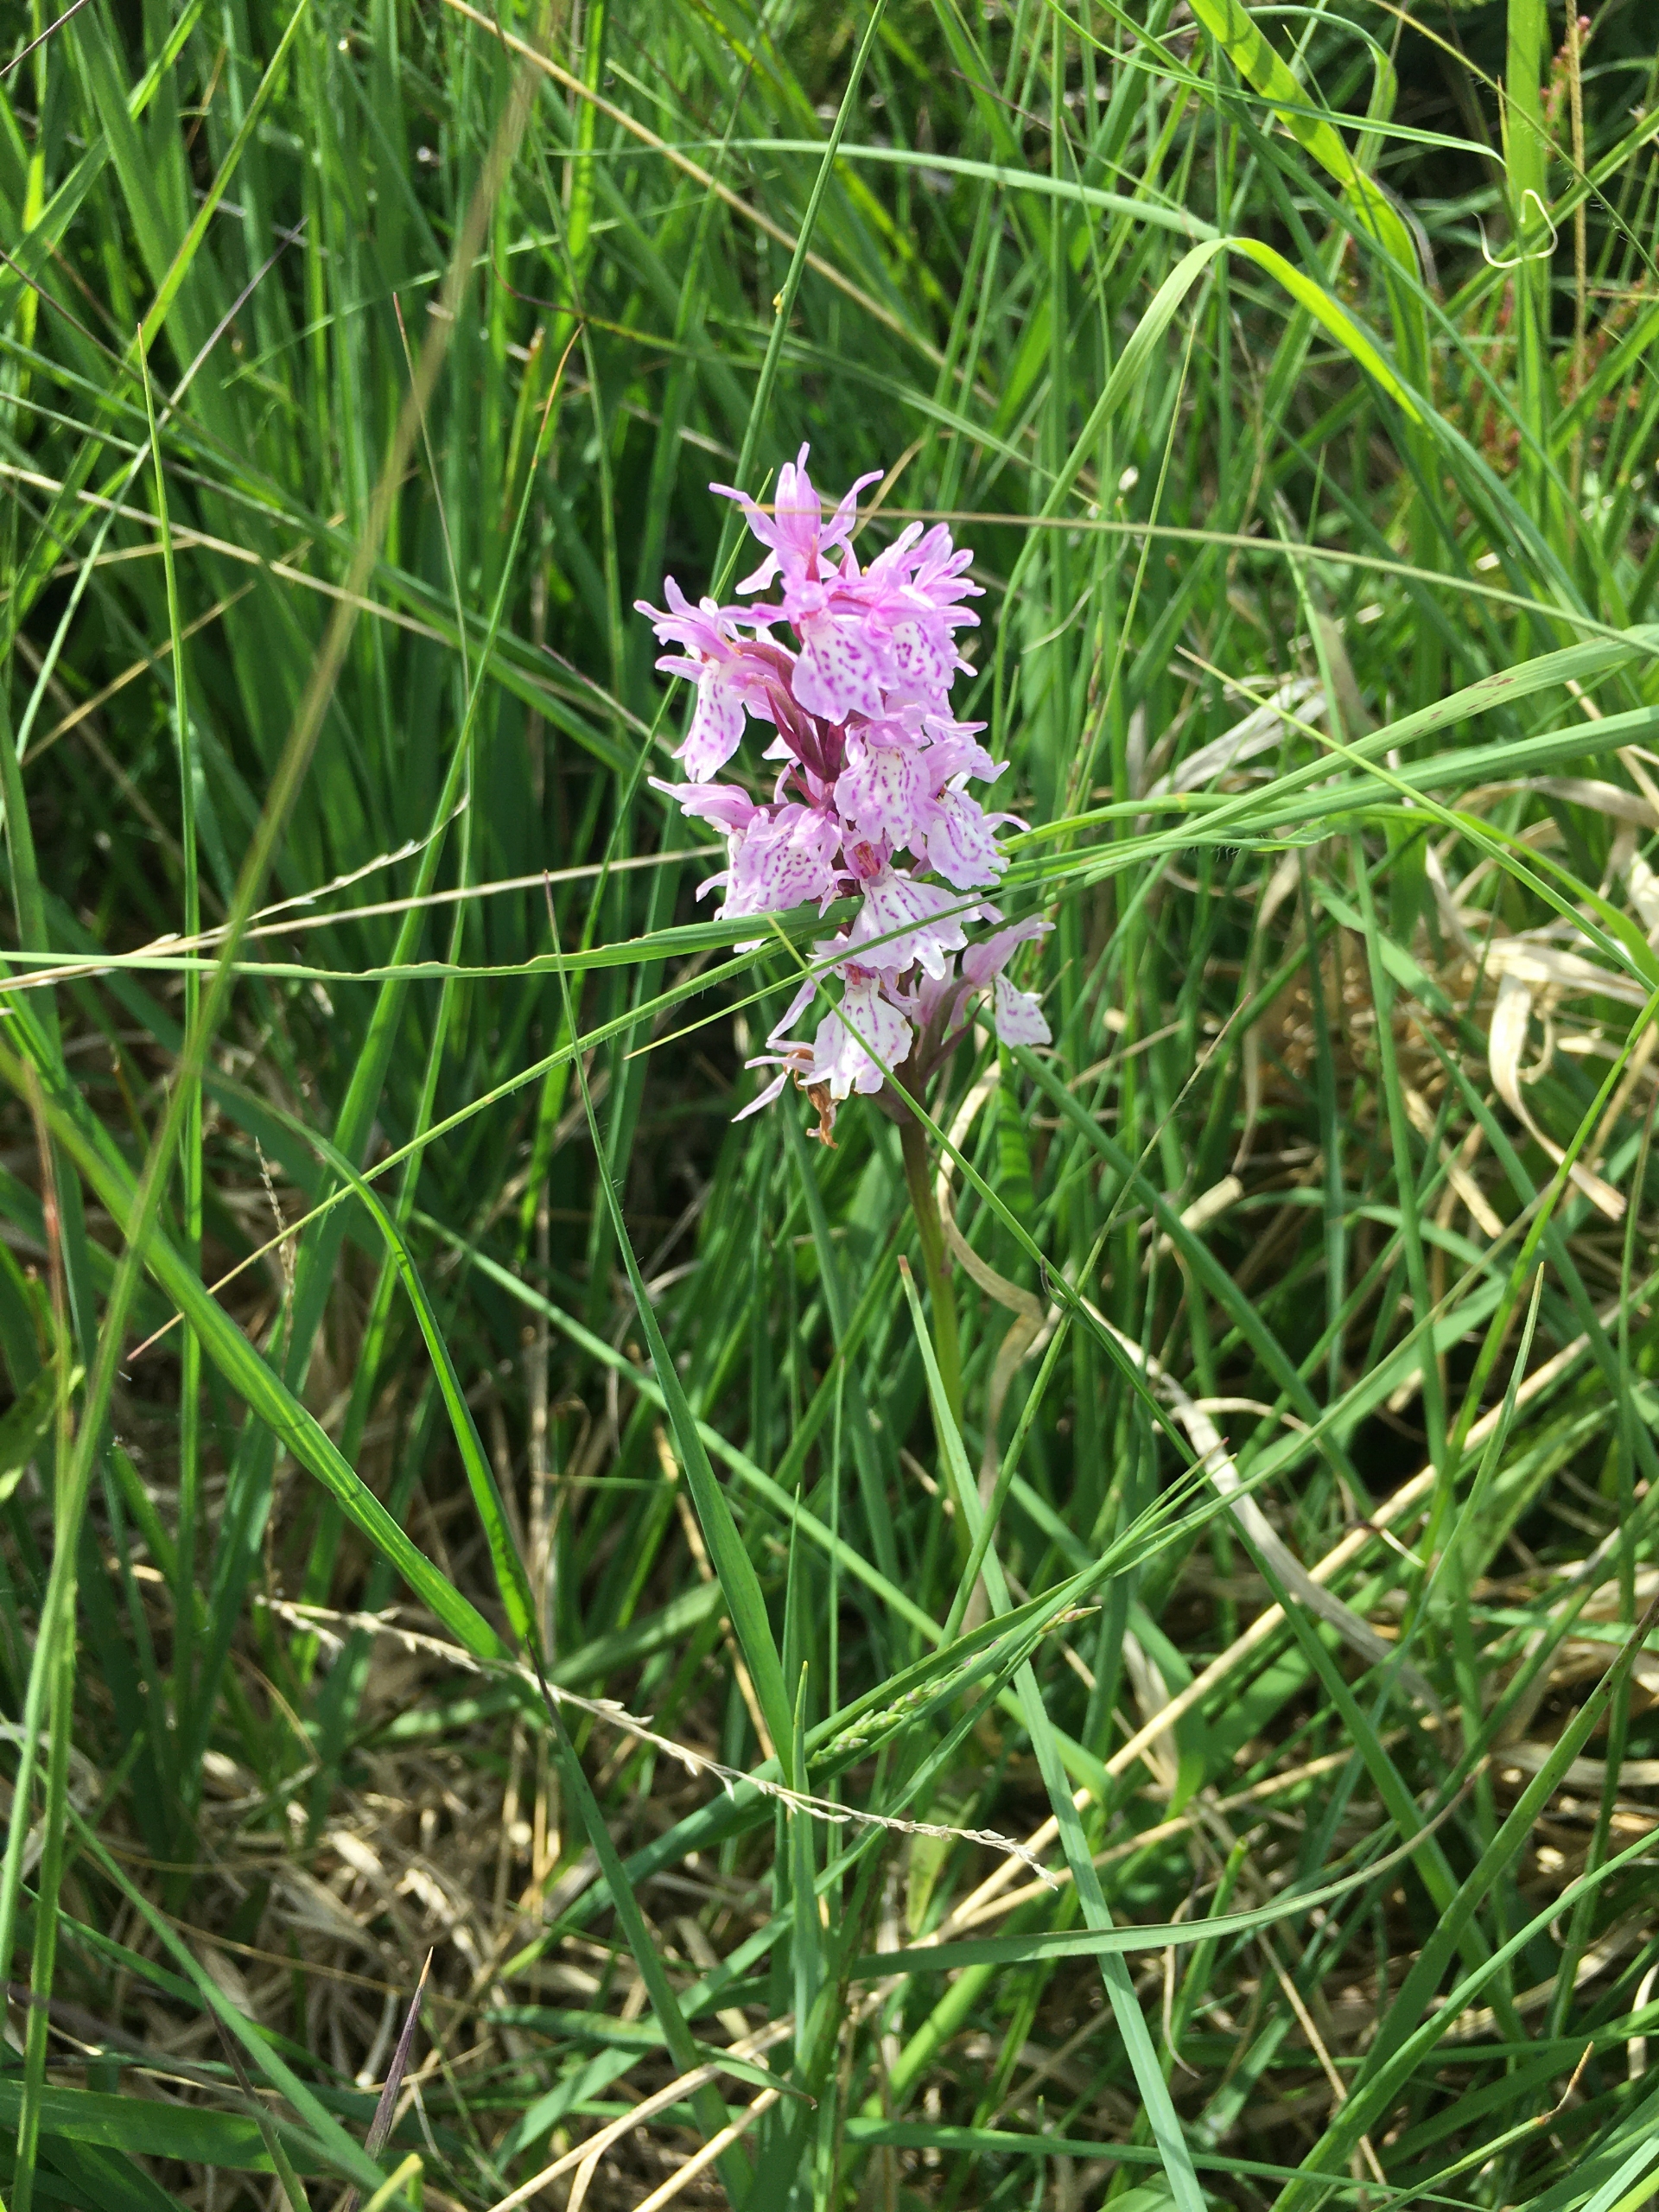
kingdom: Plantae
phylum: Tracheophyta
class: Liliopsida
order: Asparagales
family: Orchidaceae
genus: Dactylorhiza
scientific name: Dactylorhiza maculata
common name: Plettet gøgeurt
